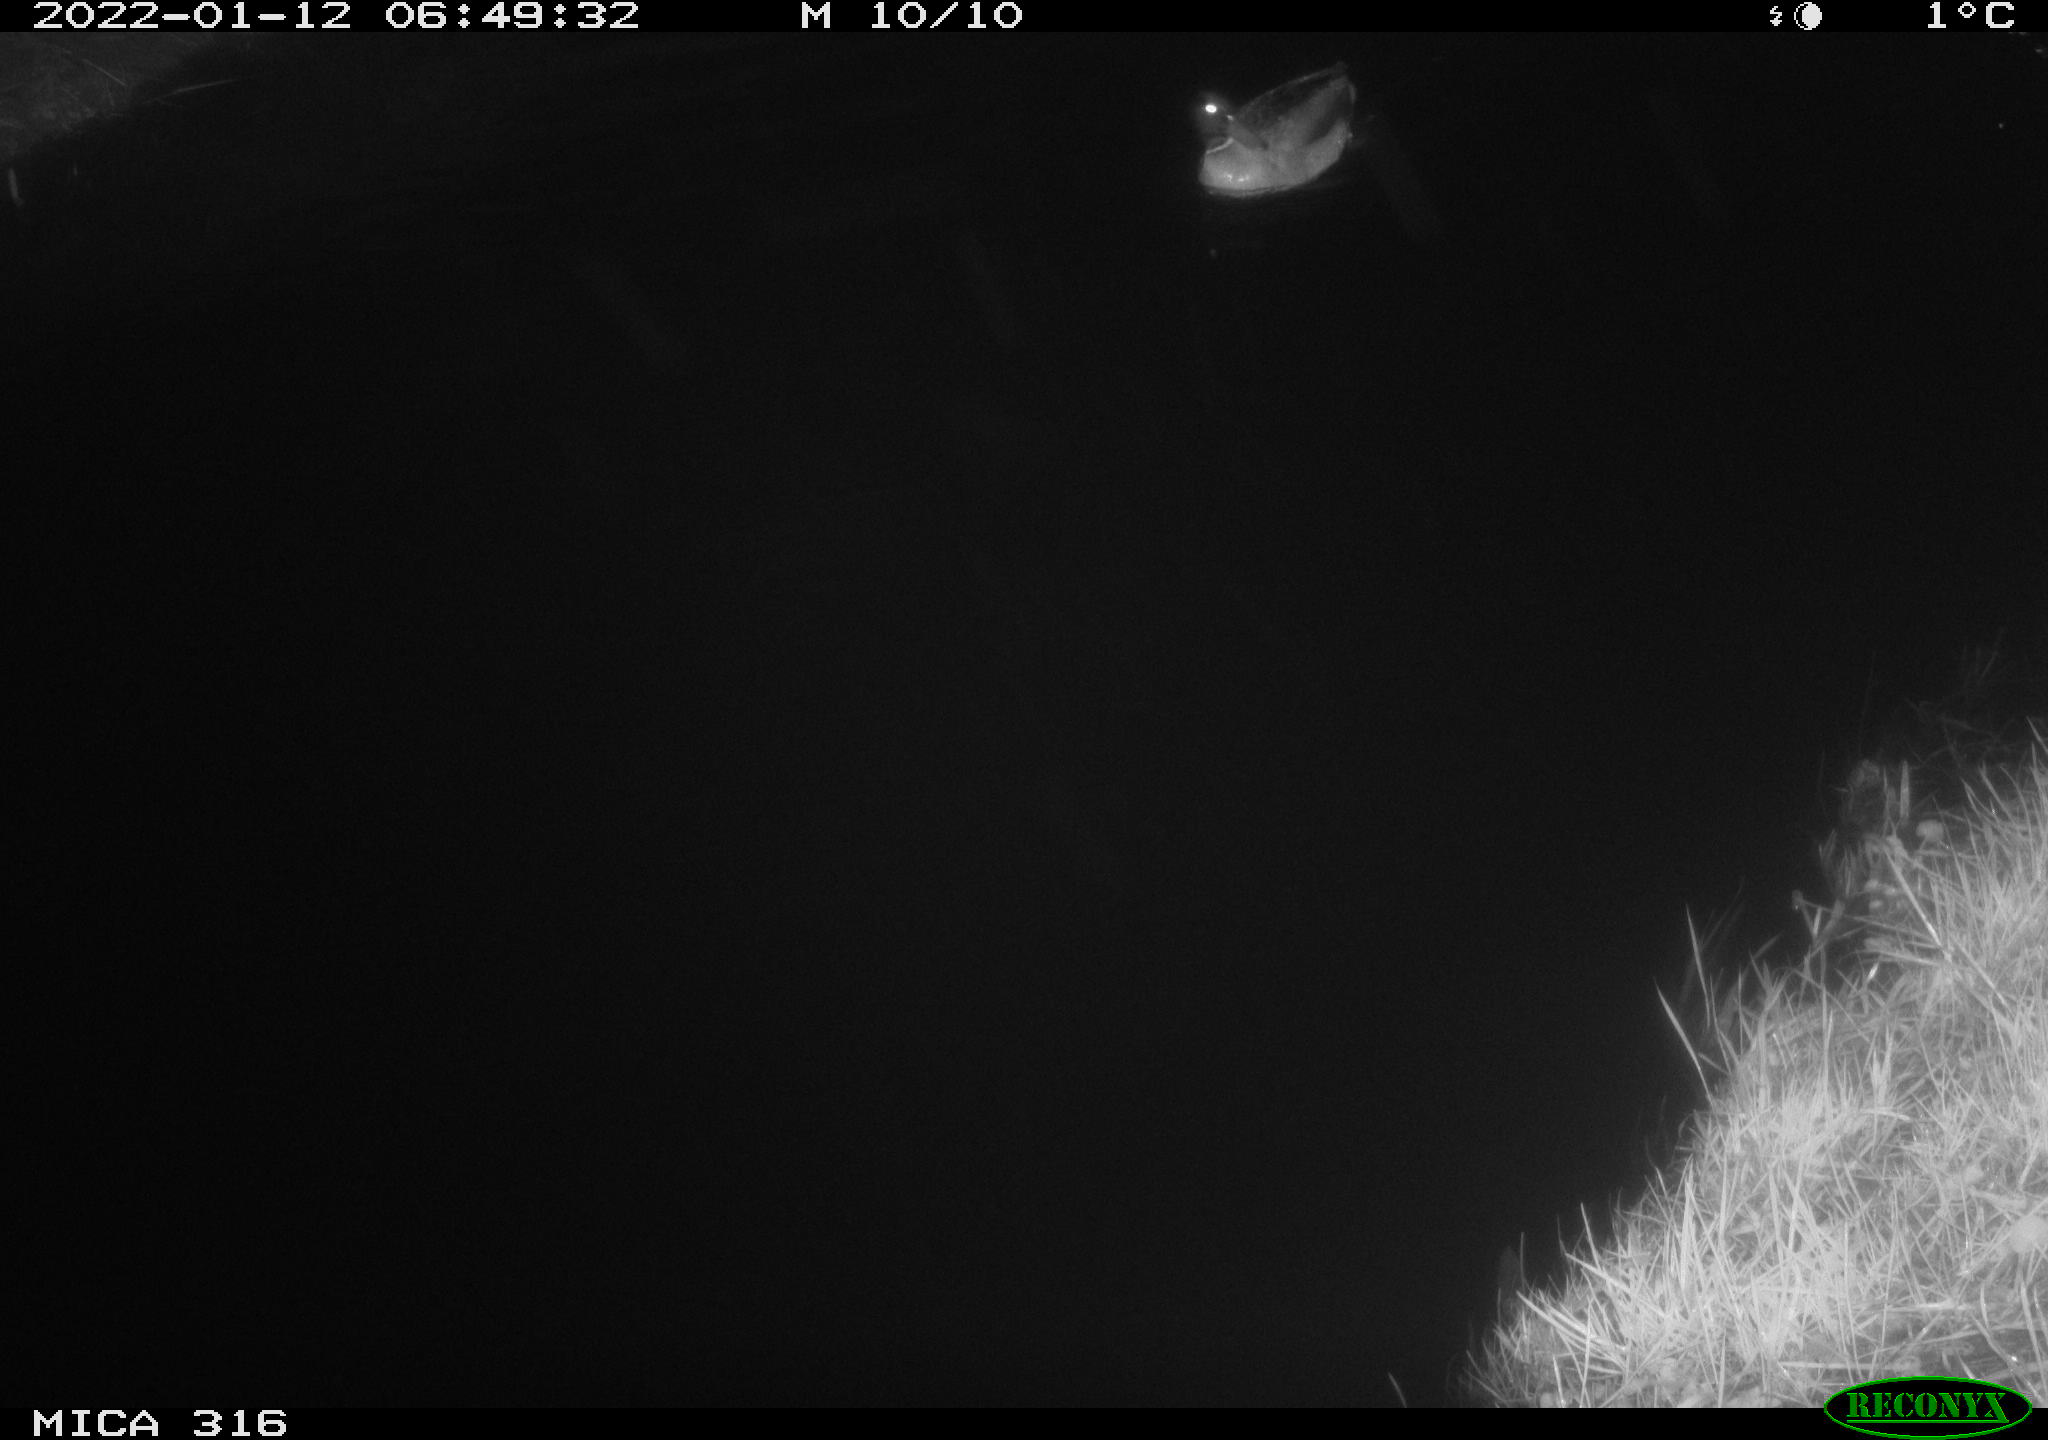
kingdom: Animalia
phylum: Chordata
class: Aves
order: Anseriformes
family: Anatidae
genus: Anas
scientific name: Anas
